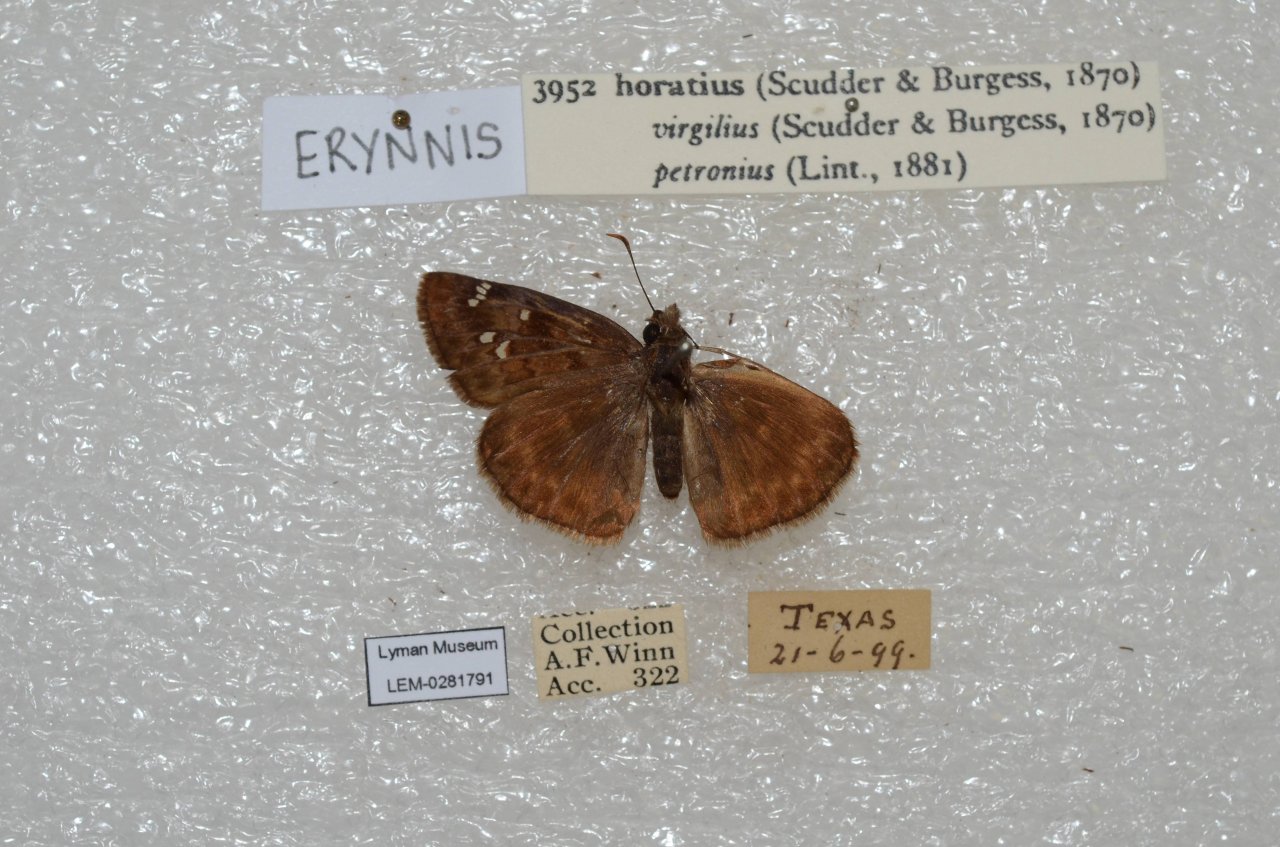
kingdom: Animalia
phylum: Arthropoda
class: Insecta
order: Lepidoptera
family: Hesperiidae
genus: Gesta
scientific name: Gesta
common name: Horace's Duskywing
